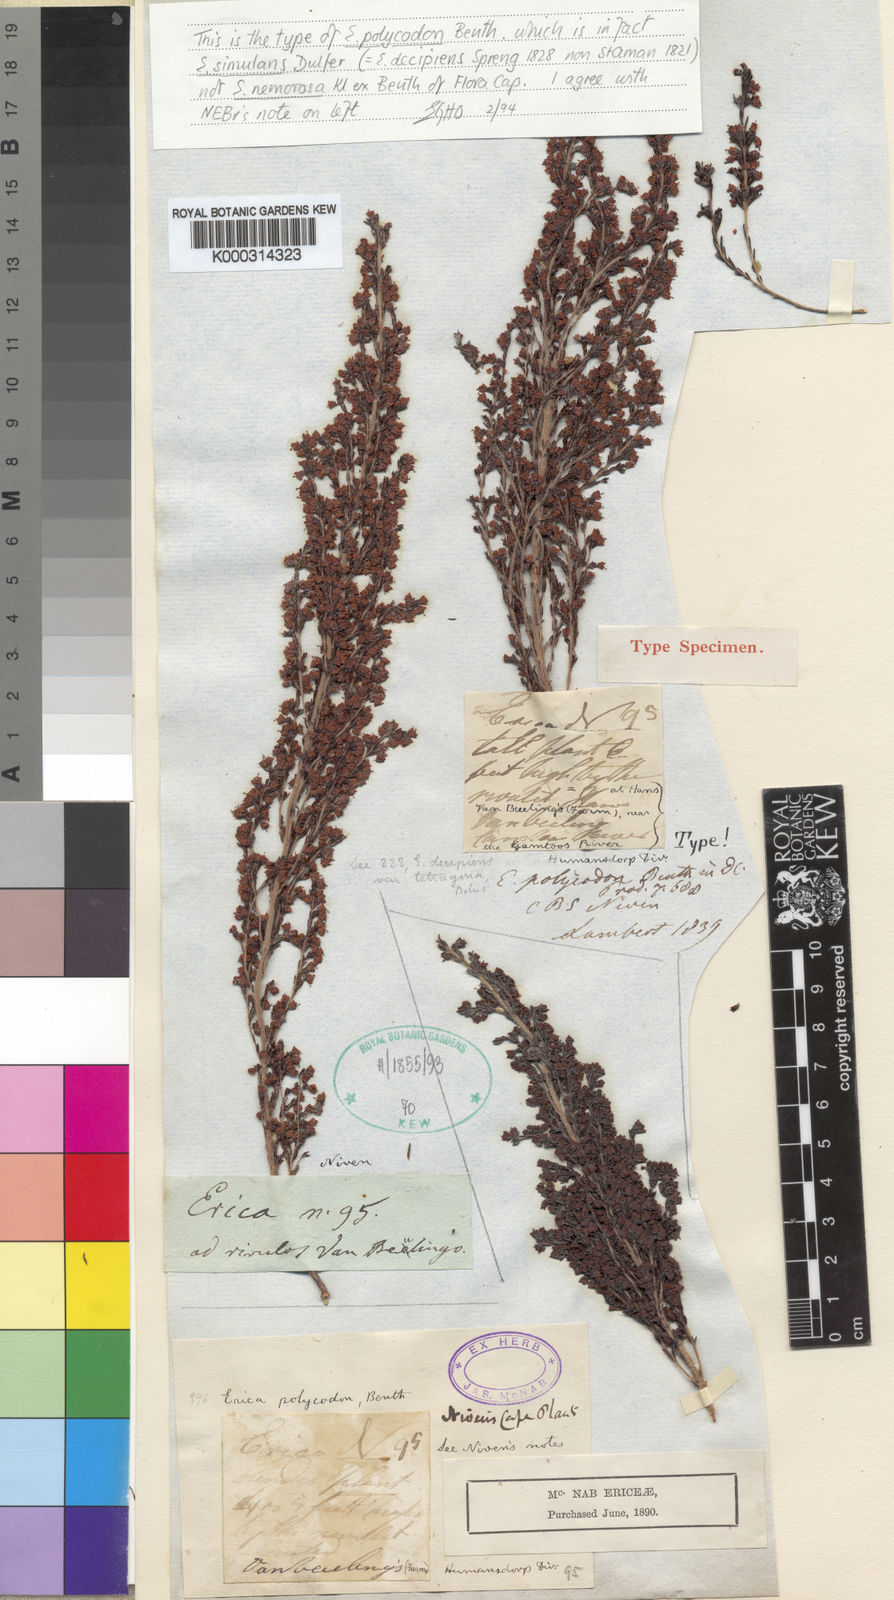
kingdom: Plantae
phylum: Tracheophyta
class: Magnoliopsida
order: Ericales
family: Ericaceae
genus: Erica
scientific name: Erica trivialis
